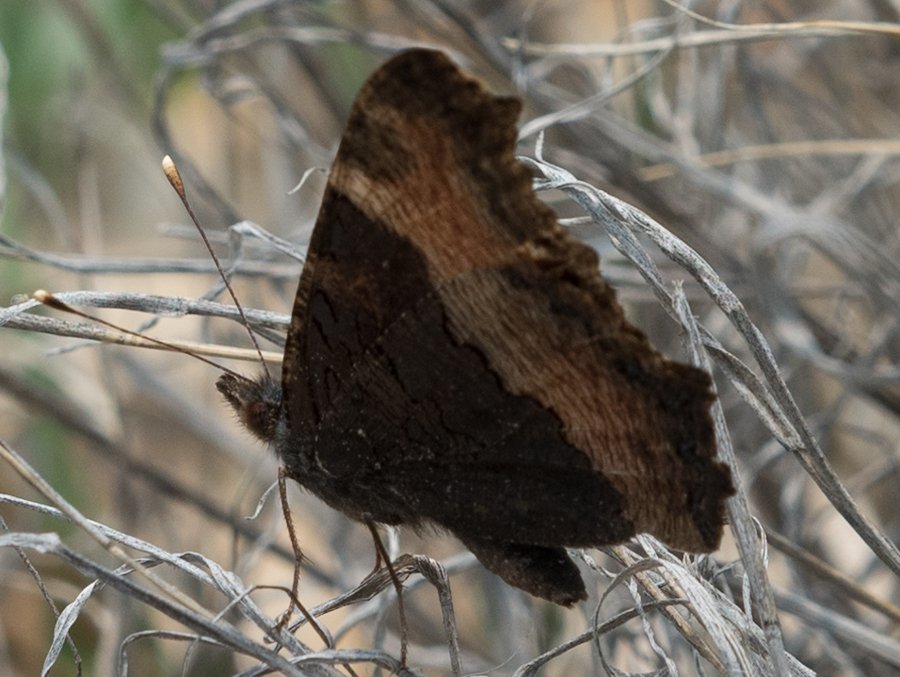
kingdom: Animalia
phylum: Arthropoda
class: Insecta
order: Lepidoptera
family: Nymphalidae
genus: Aglais
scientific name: Aglais milberti
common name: Milbert's Tortoiseshell
